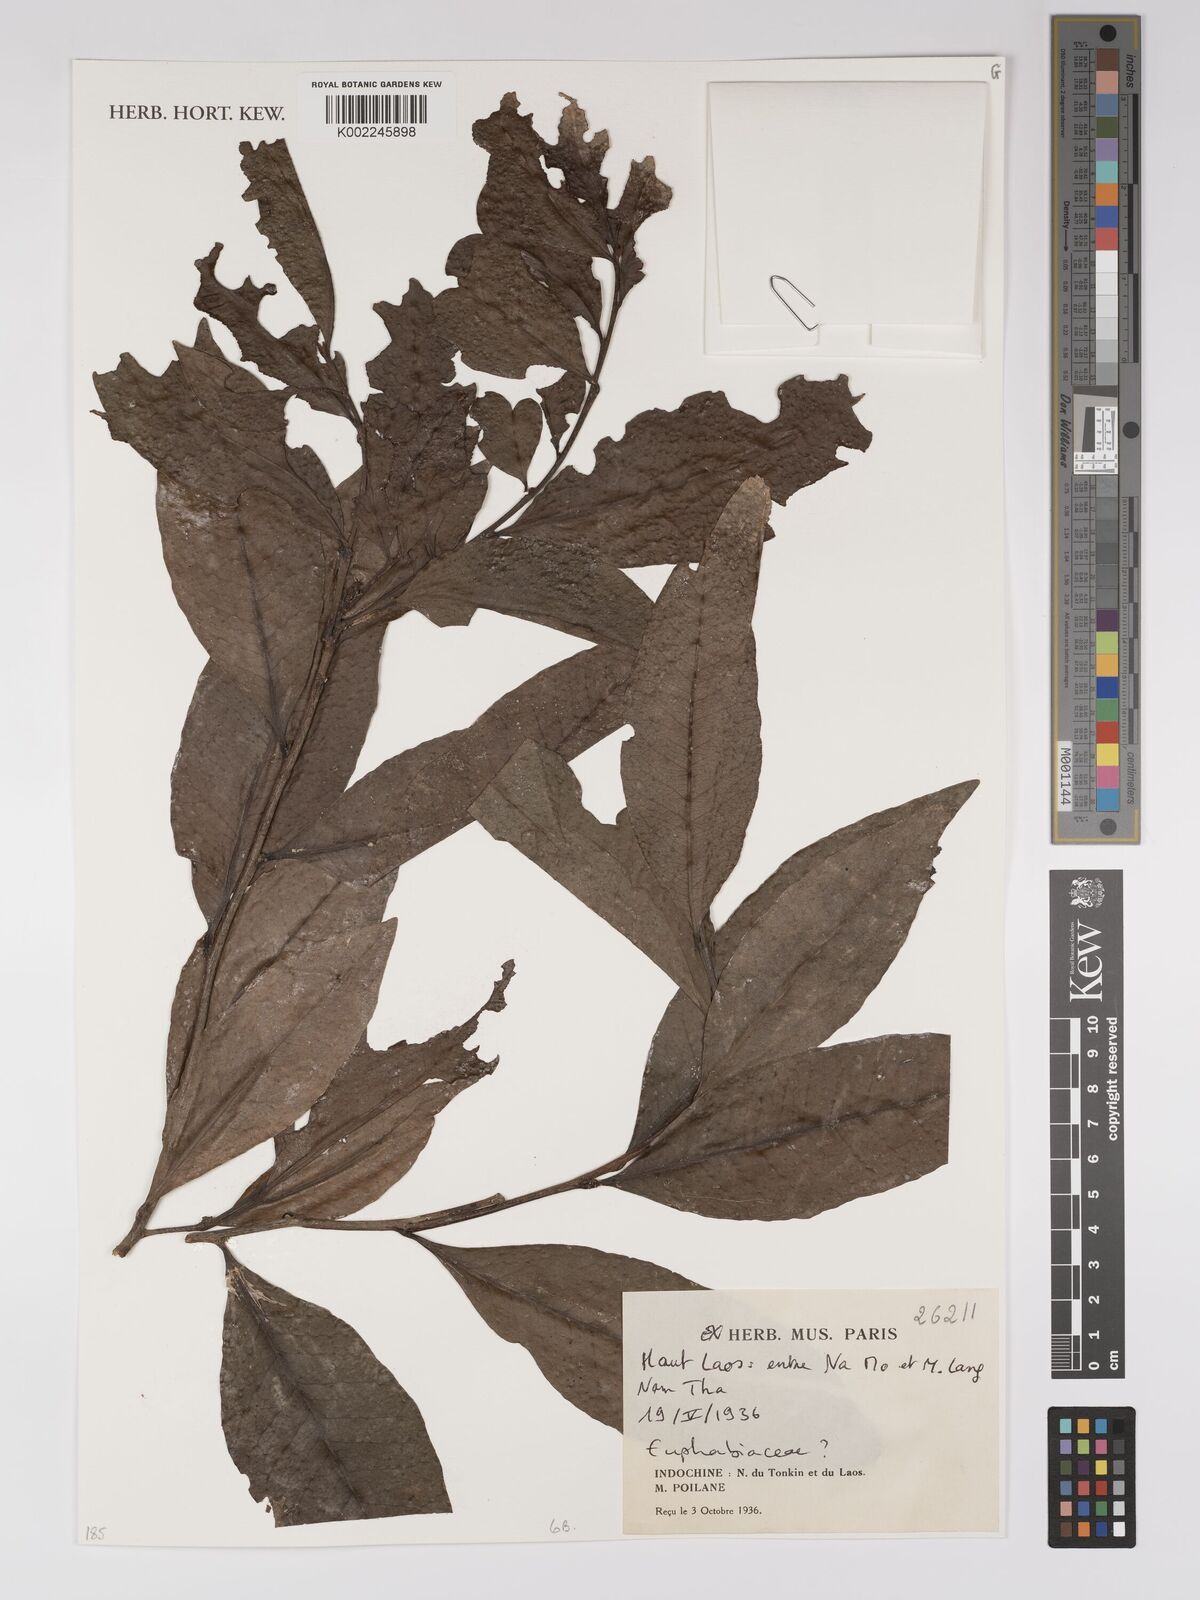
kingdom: Plantae
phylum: Tracheophyta
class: Magnoliopsida
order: Malpighiales
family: Euphorbiaceae
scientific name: Euphorbiaceae
